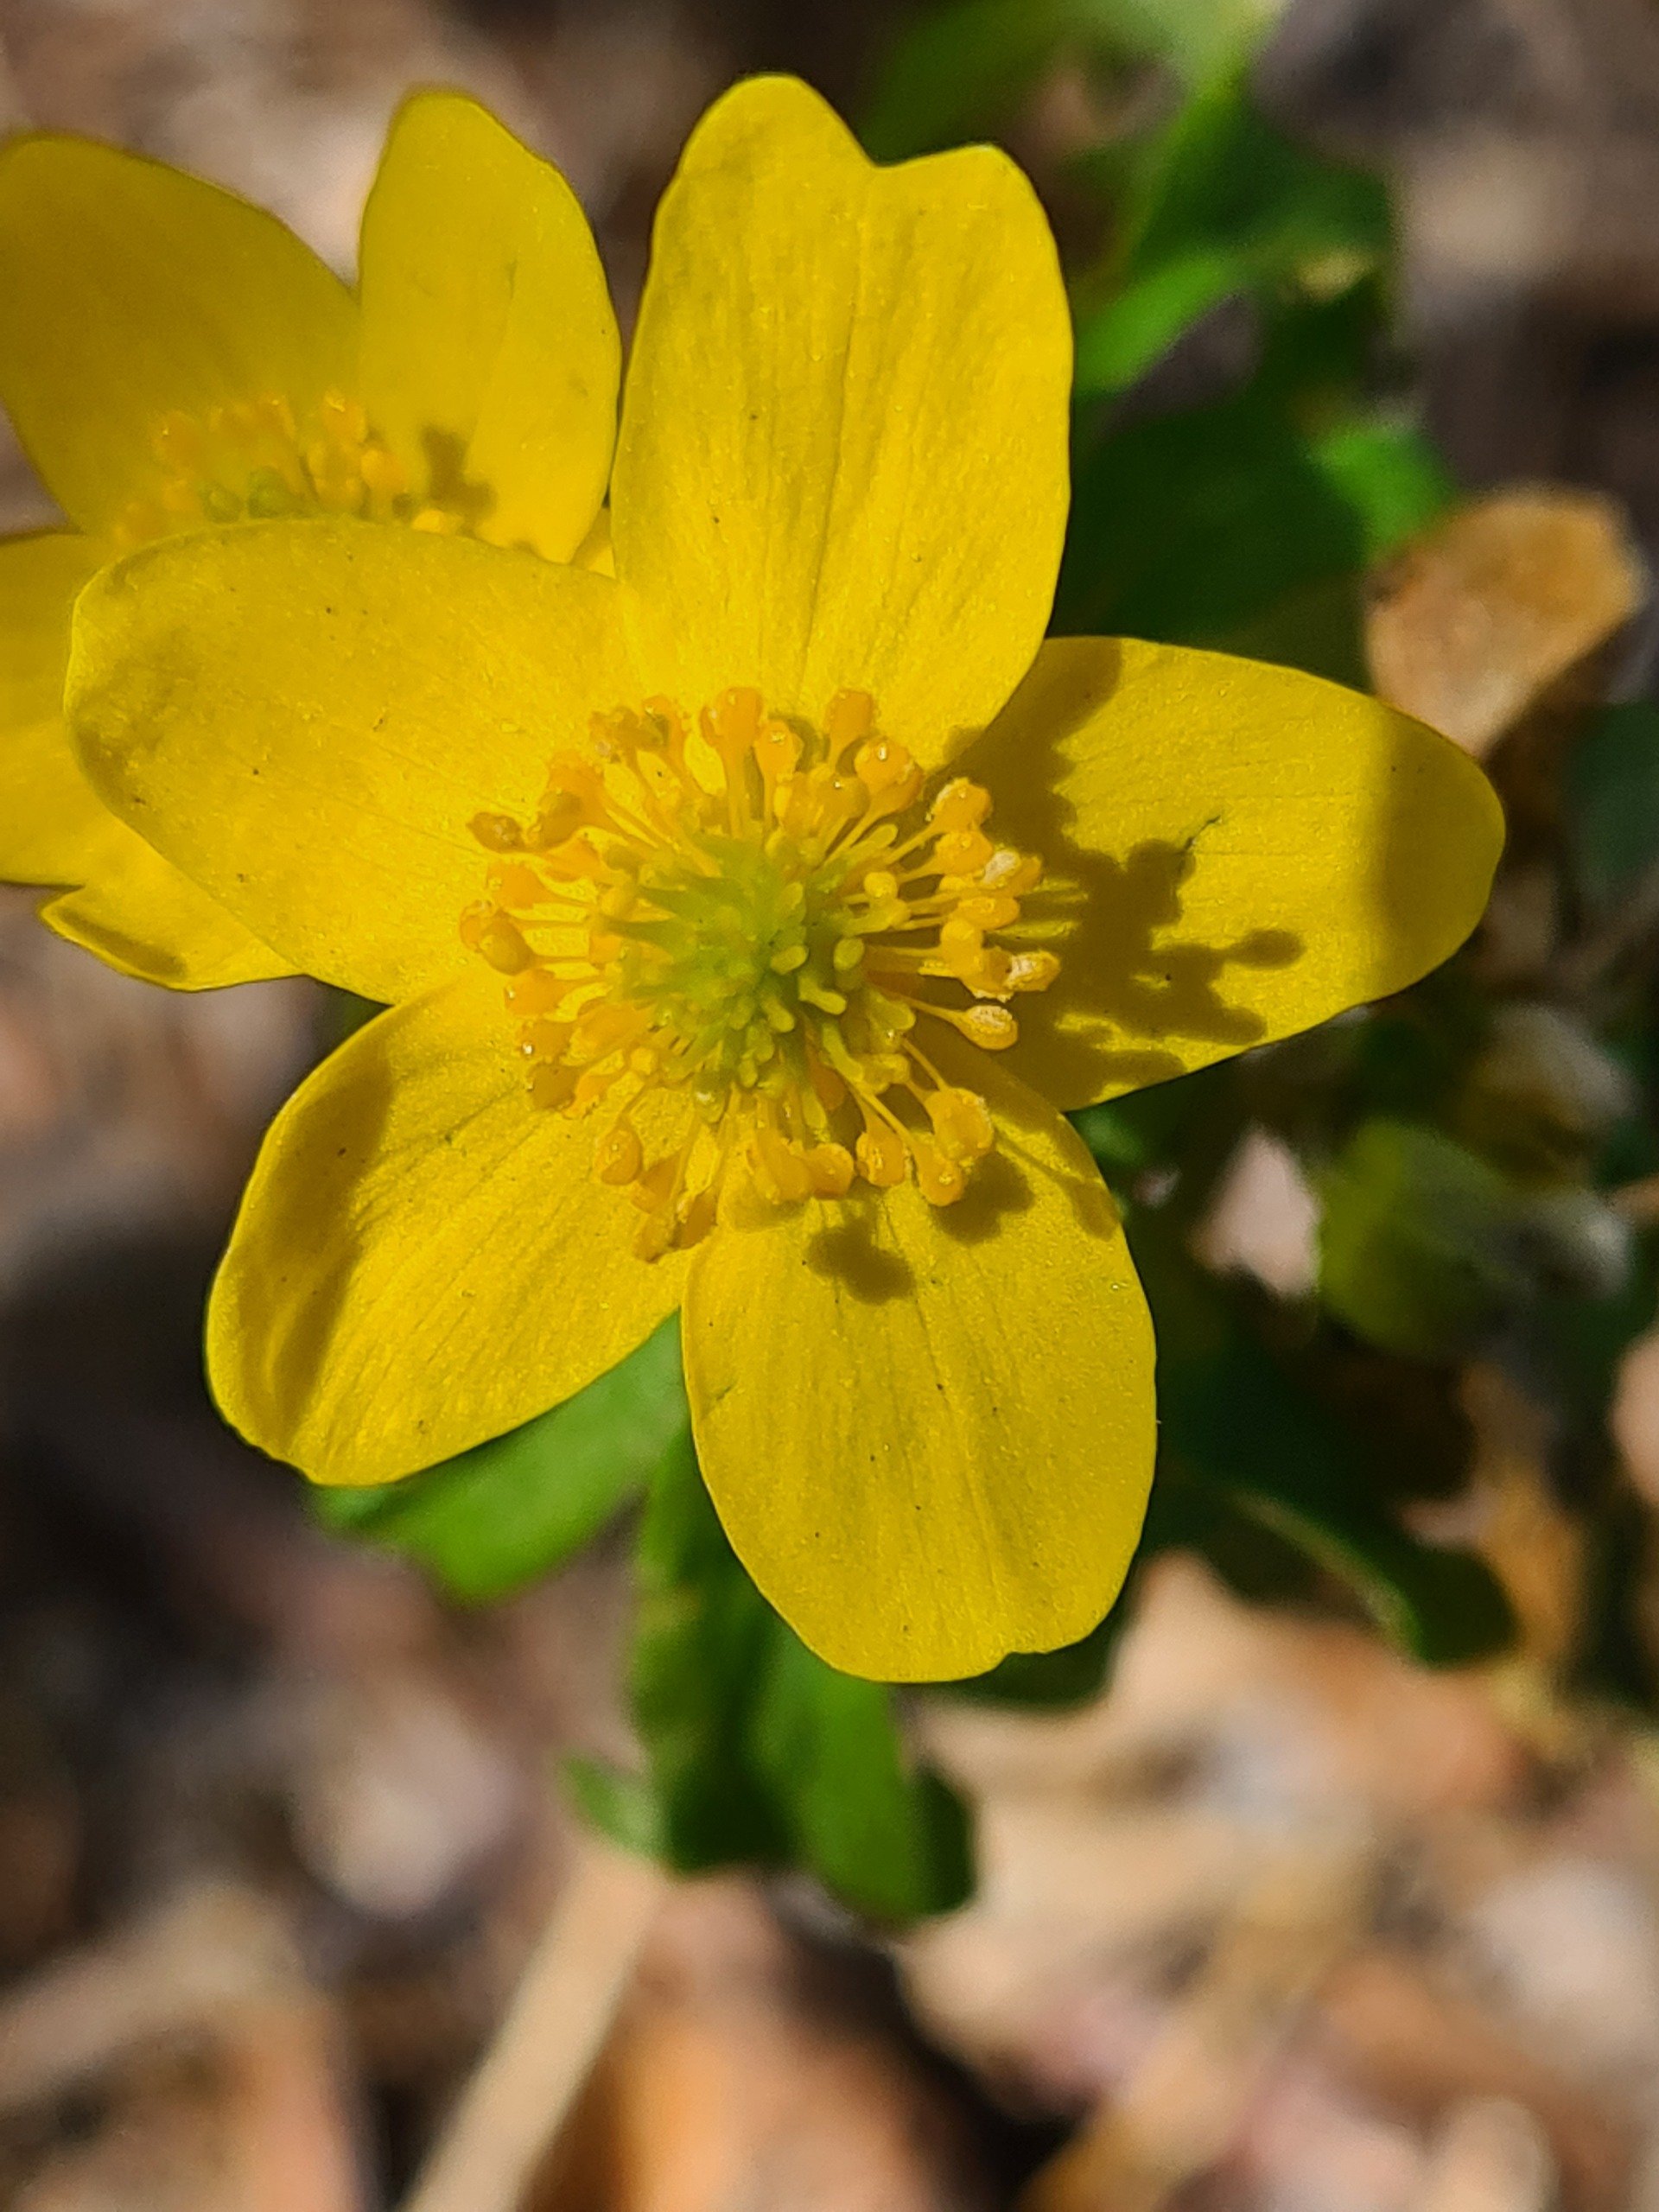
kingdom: Plantae
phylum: Tracheophyta
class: Magnoliopsida
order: Ranunculales
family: Ranunculaceae
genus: Anemone
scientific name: Anemone ranunculoides
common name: Gul anemone
